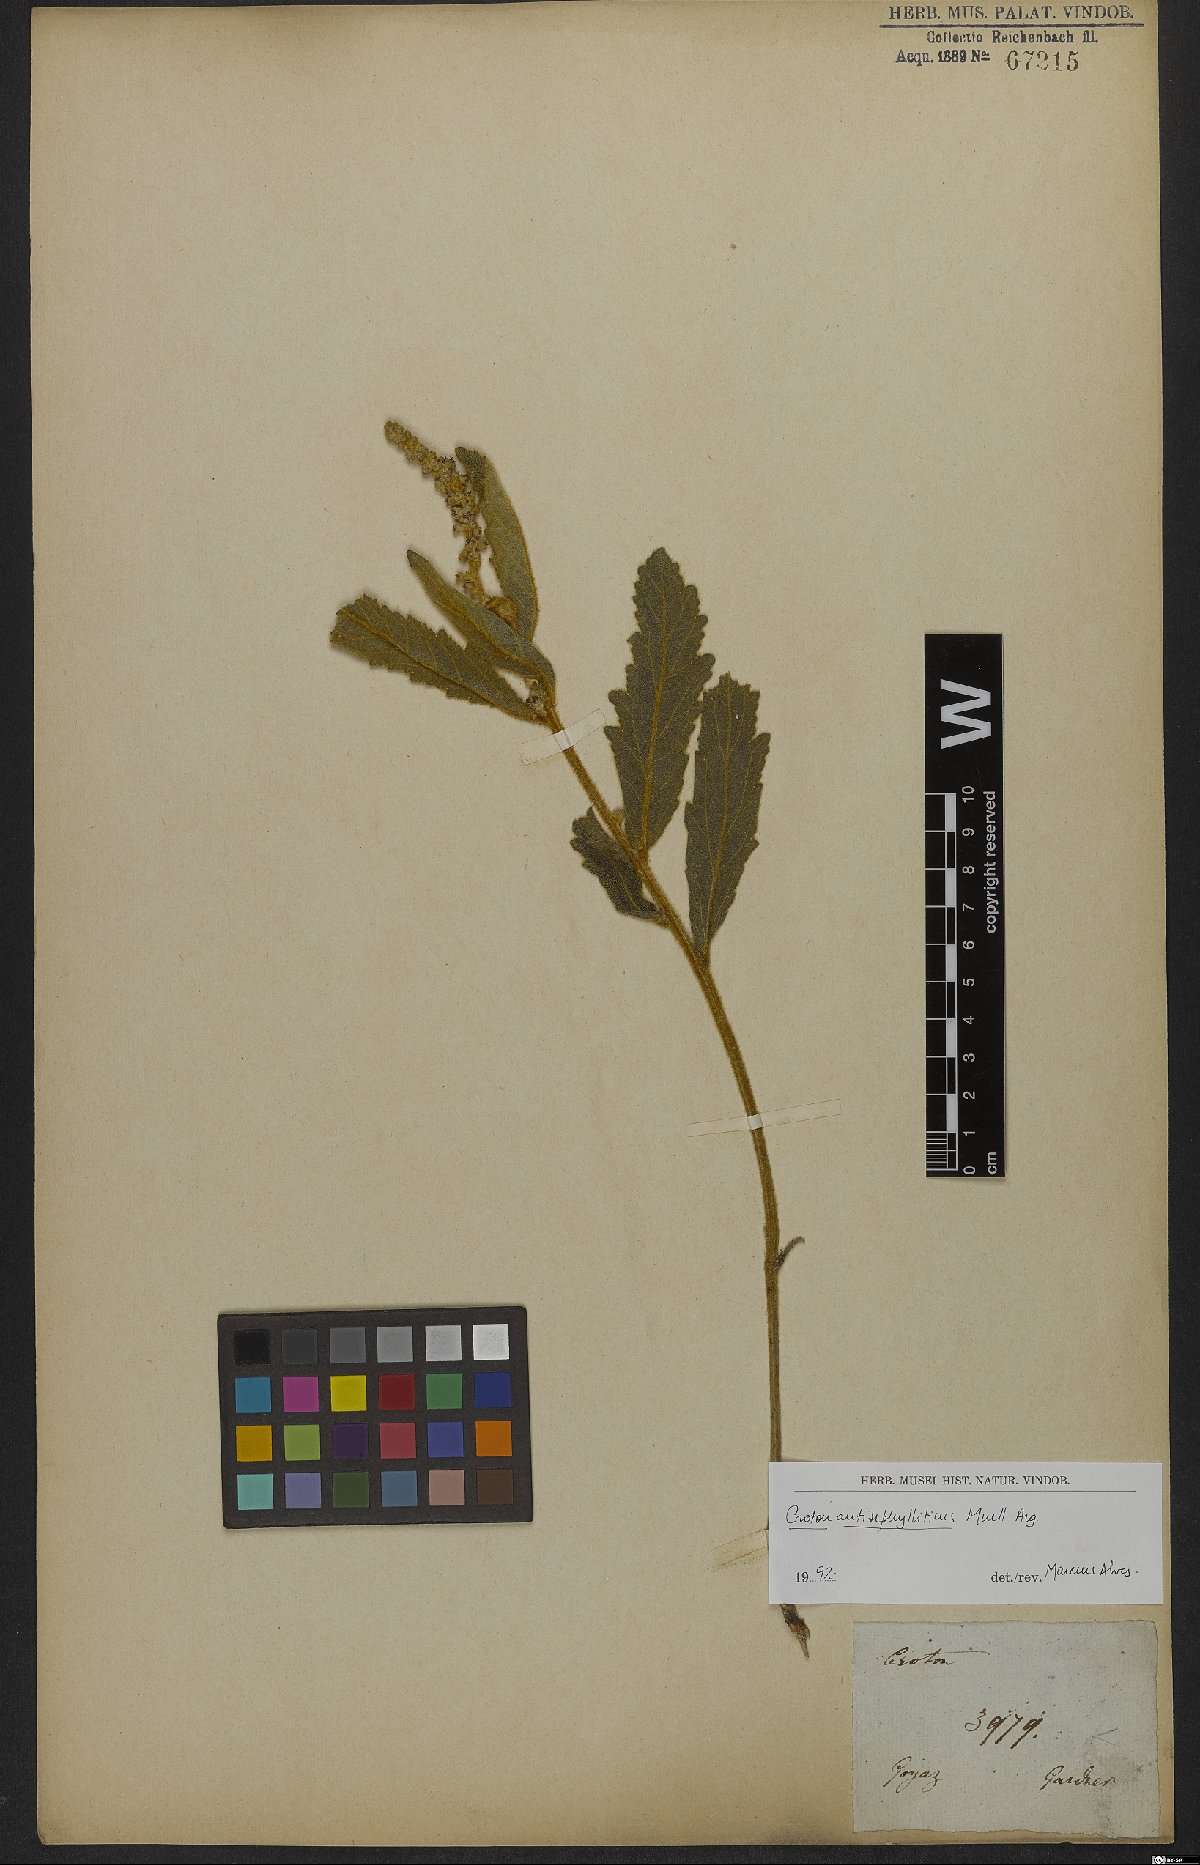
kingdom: Plantae
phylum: Tracheophyta
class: Magnoliopsida
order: Malpighiales
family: Euphorbiaceae
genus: Croton
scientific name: Croton antisyphiliticus
